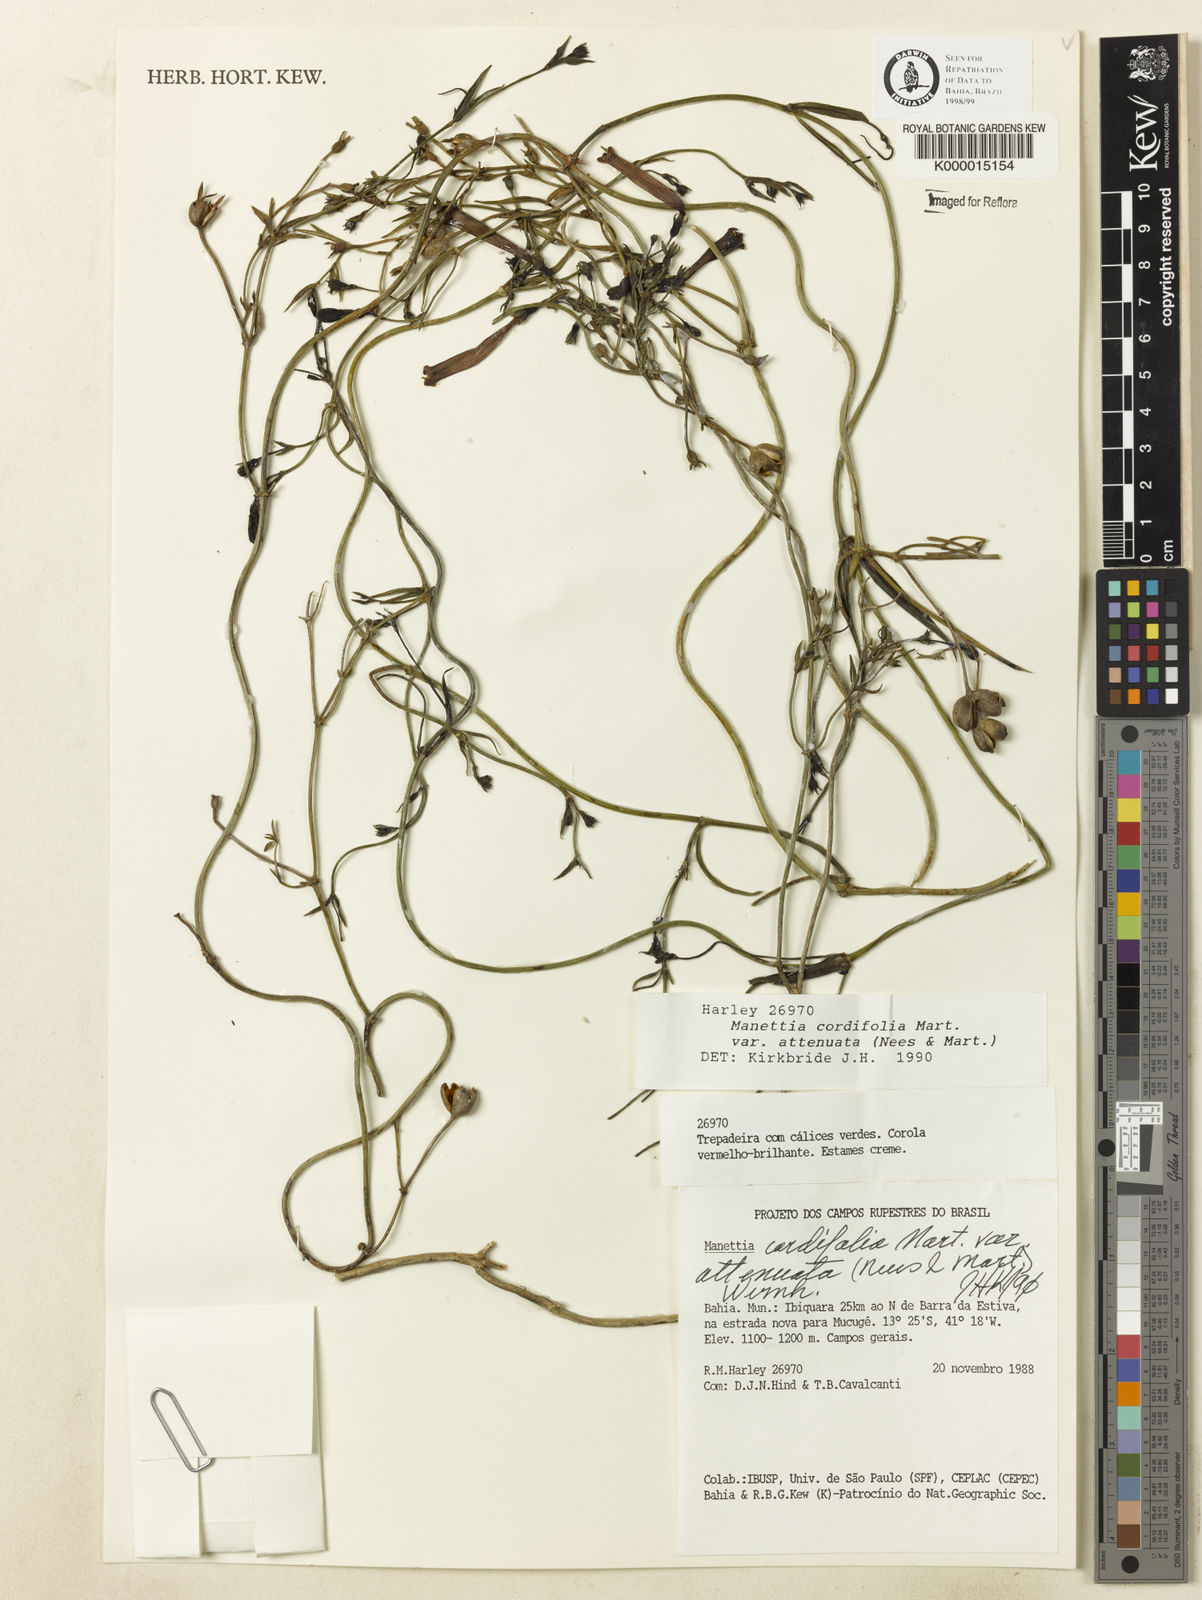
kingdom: Plantae
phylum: Tracheophyta
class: Magnoliopsida
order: Gentianales
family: Rubiaceae
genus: Manettia
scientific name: Manettia cordifolia
